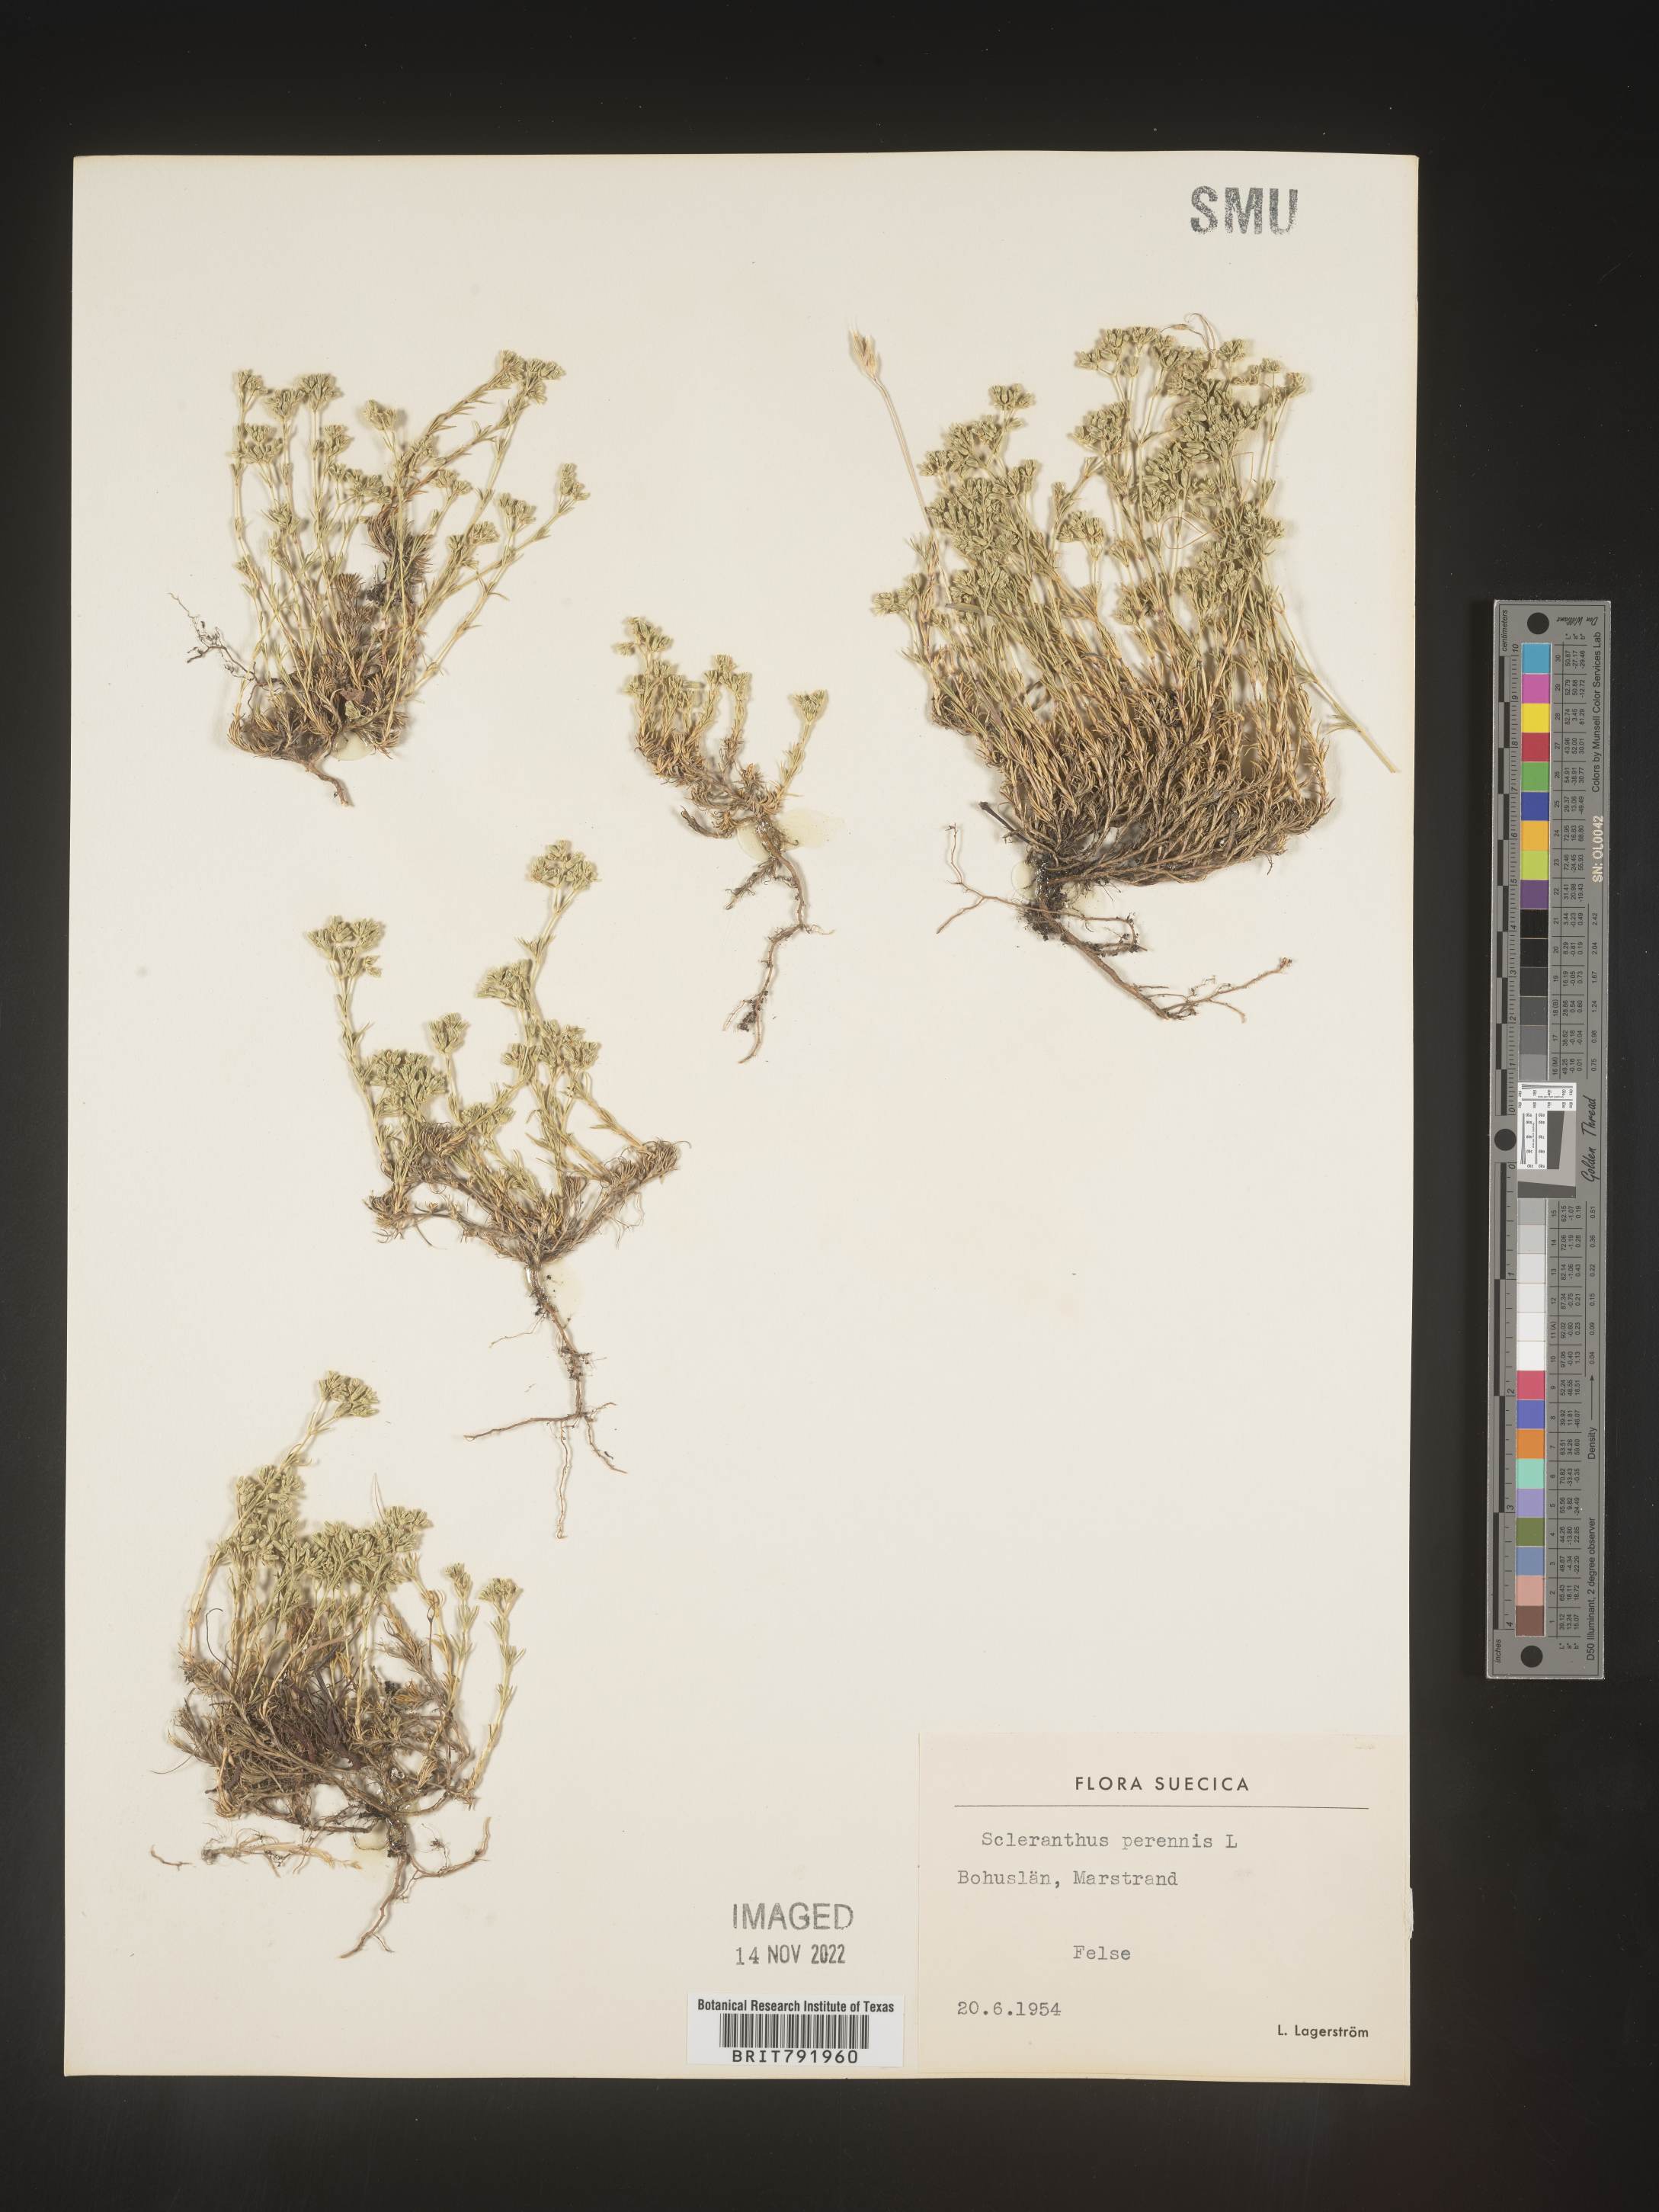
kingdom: Plantae
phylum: Tracheophyta
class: Magnoliopsida
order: Caryophyllales
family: Caryophyllaceae
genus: Scleranthus
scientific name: Scleranthus
